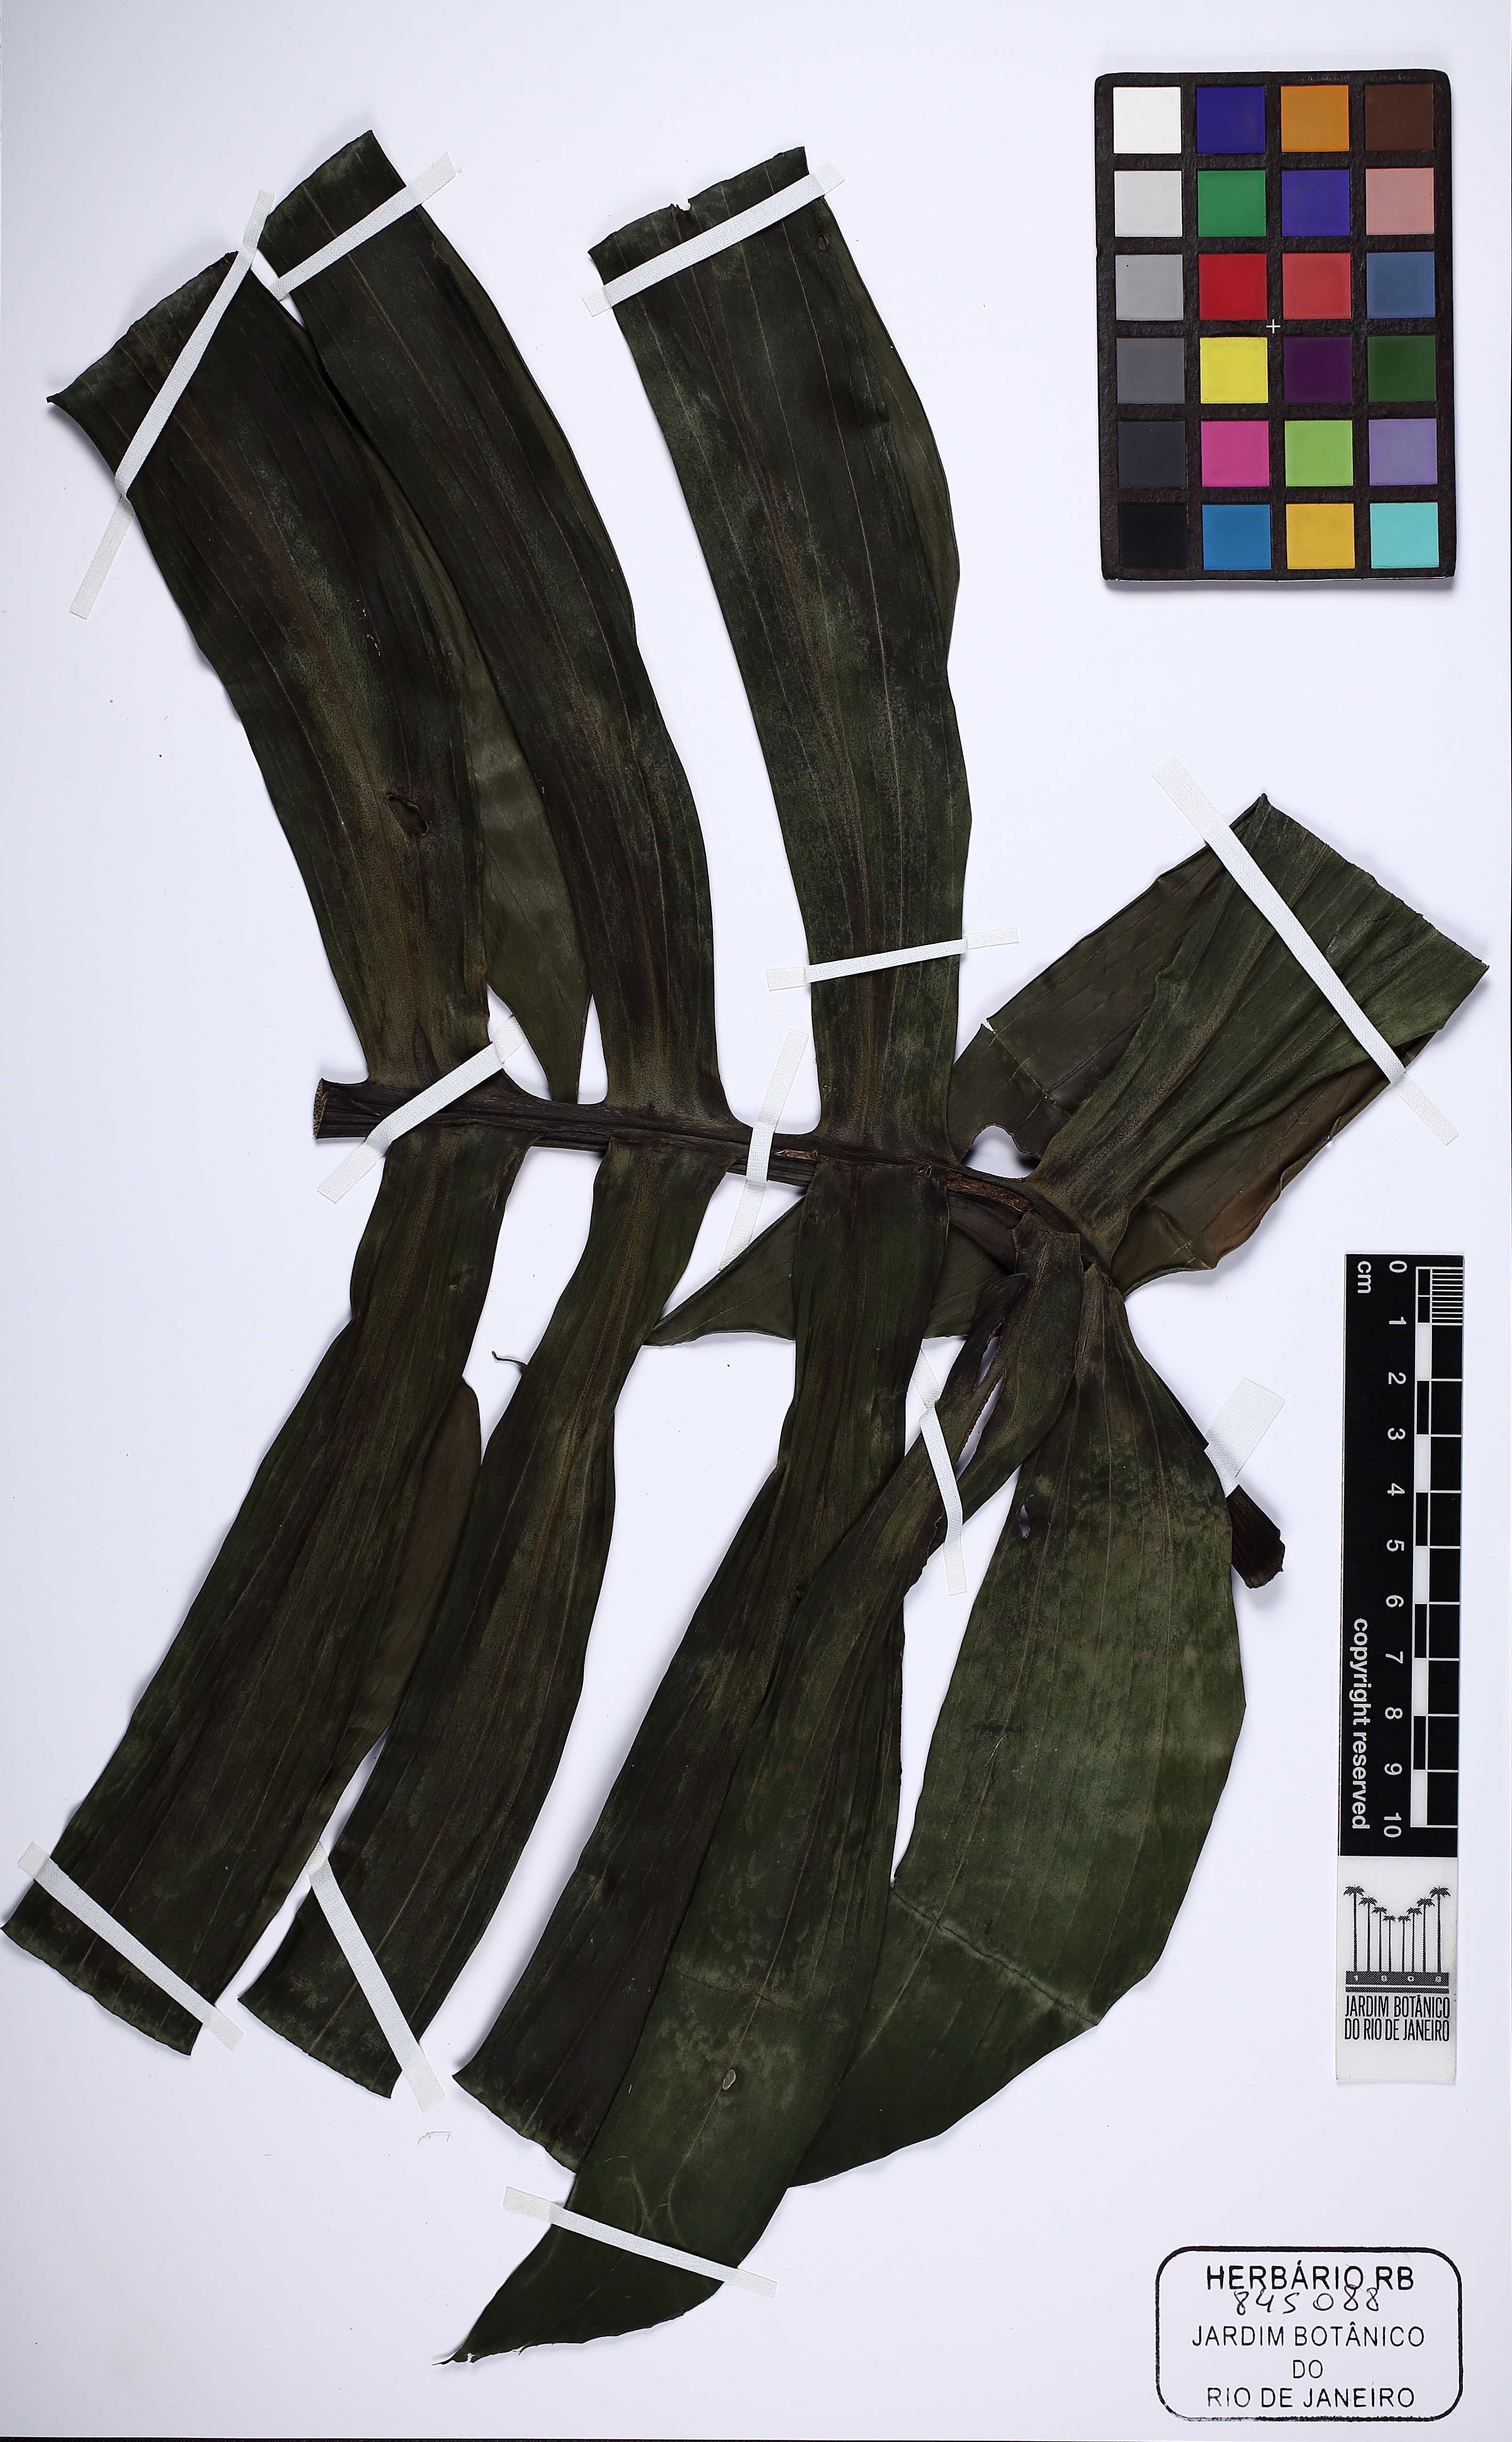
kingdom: Plantae
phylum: Tracheophyta
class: Liliopsida
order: Alismatales
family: Araceae
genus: Rhaphidophora
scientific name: Rhaphidophora decursiva
